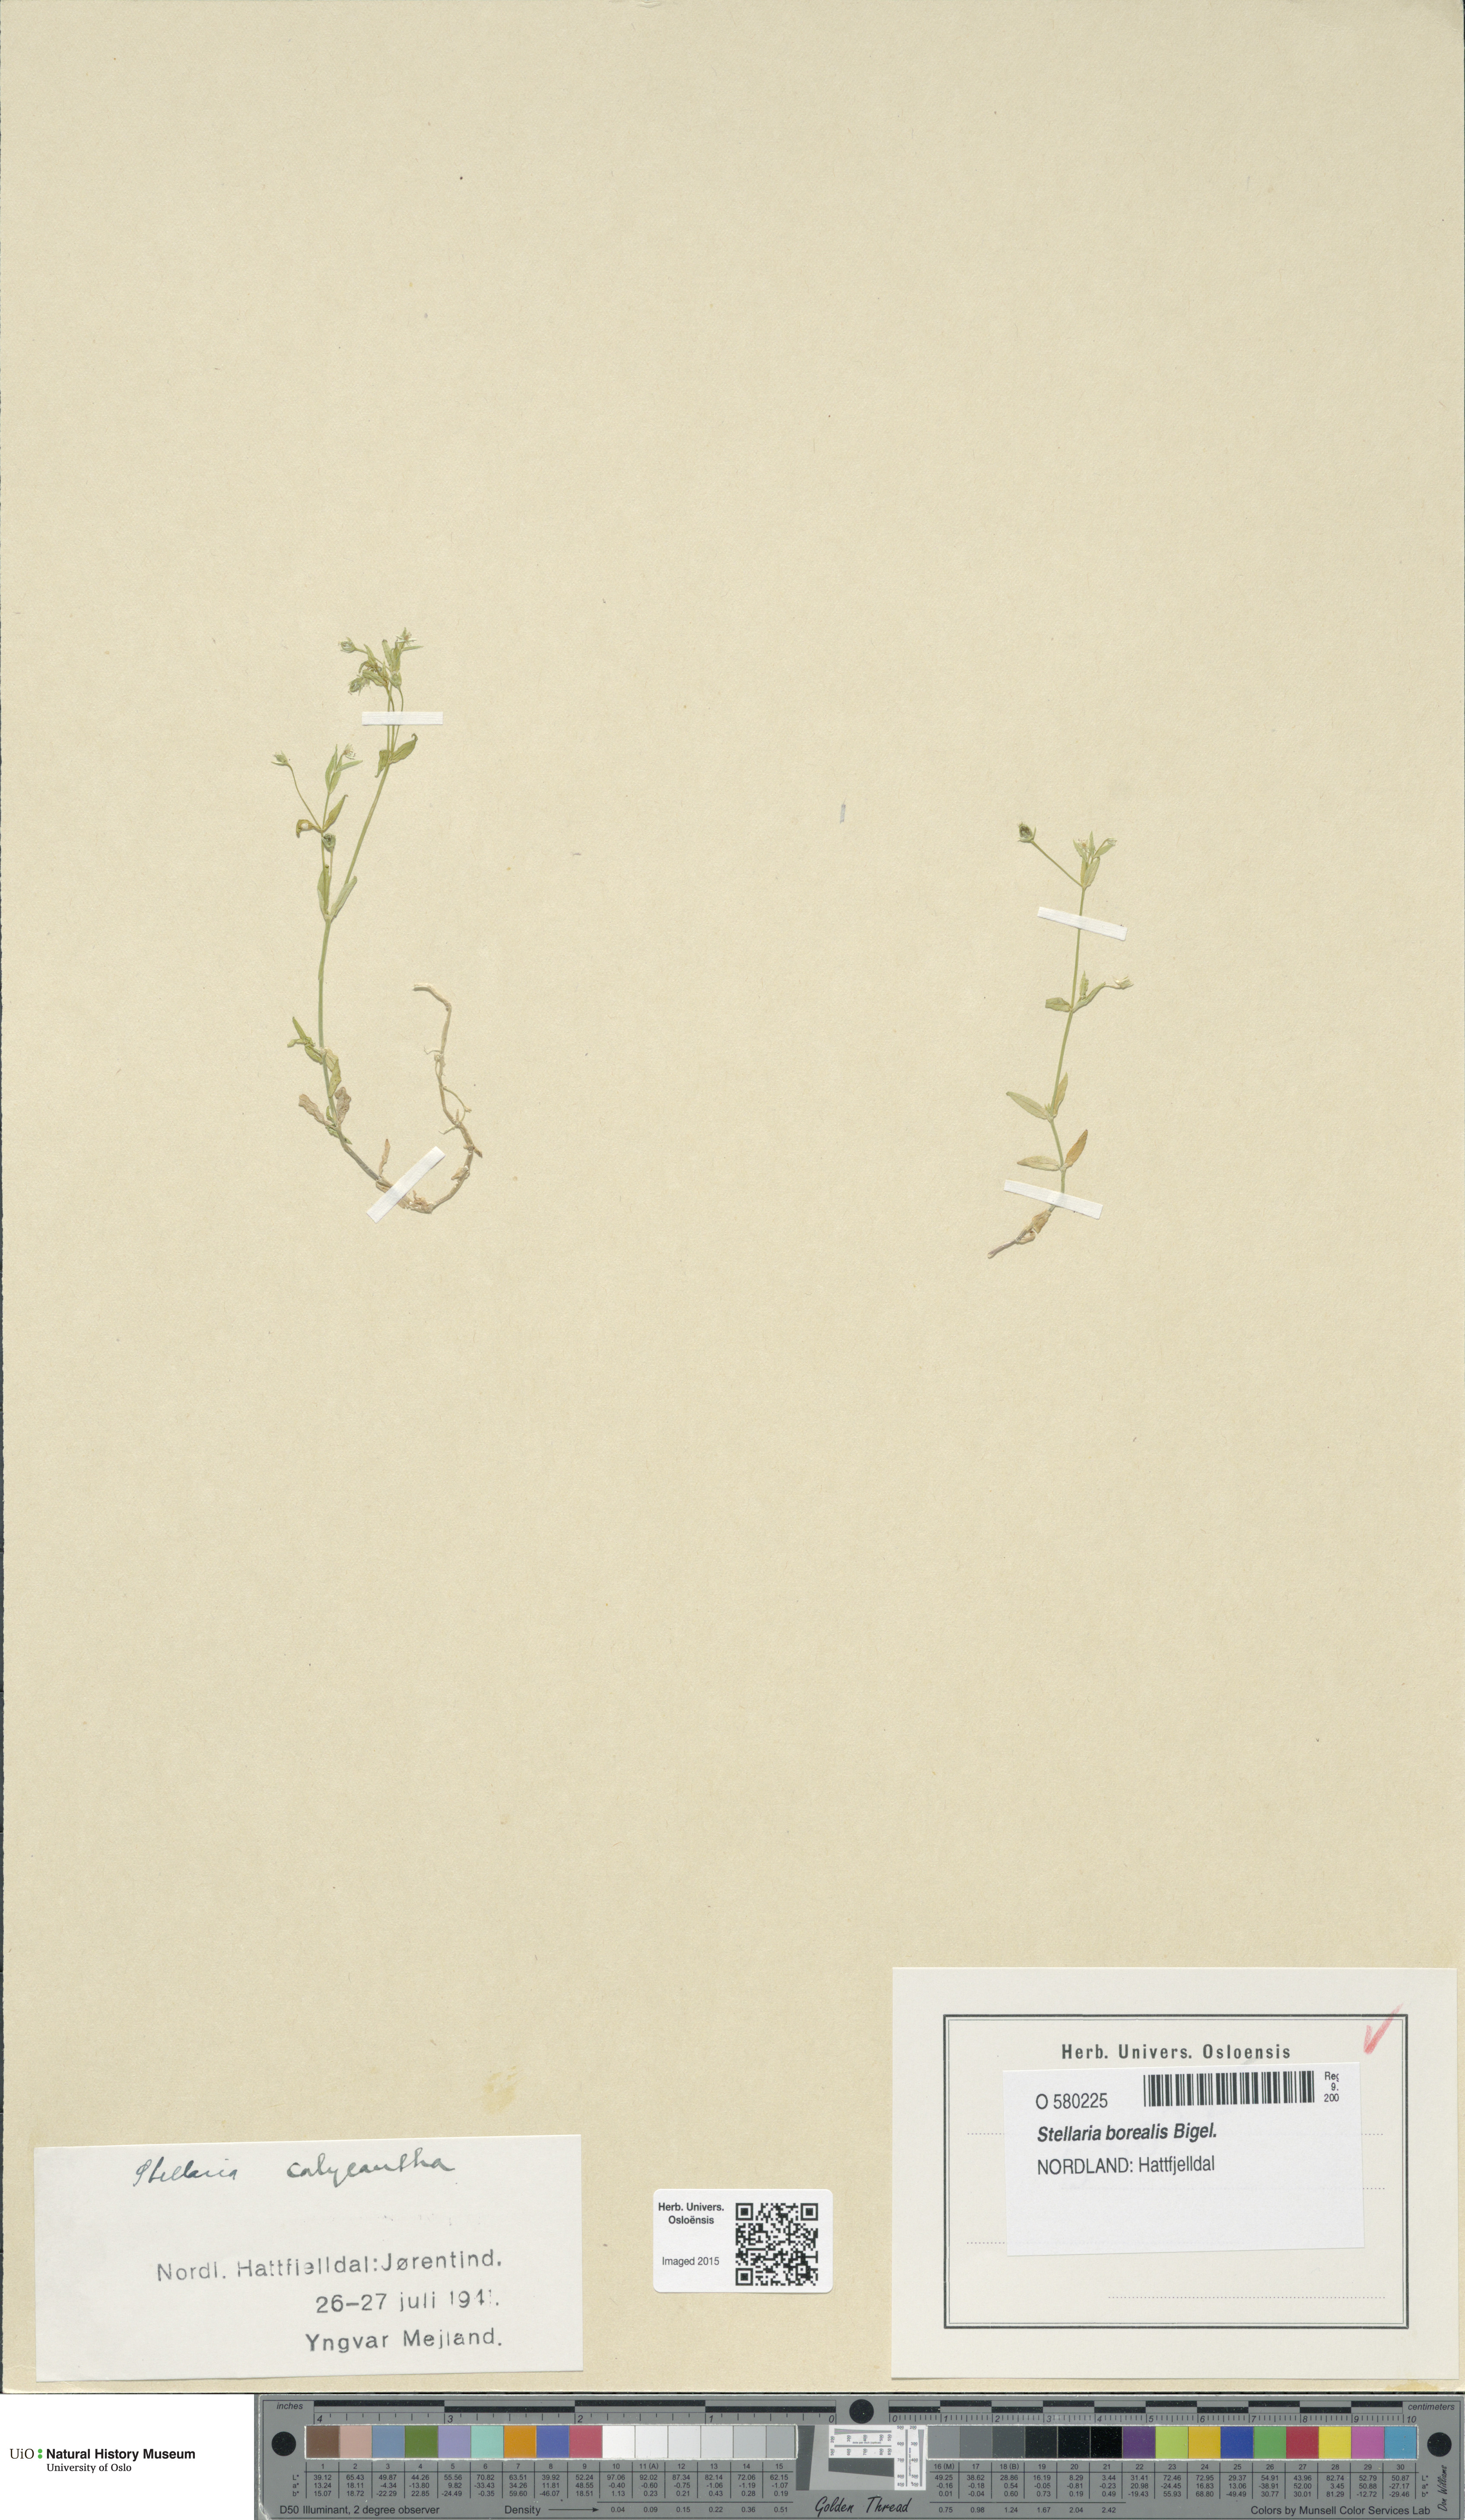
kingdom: Plantae
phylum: Tracheophyta
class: Magnoliopsida
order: Caryophyllales
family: Caryophyllaceae
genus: Stellaria
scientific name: Stellaria borealis
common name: Boreal starwort
